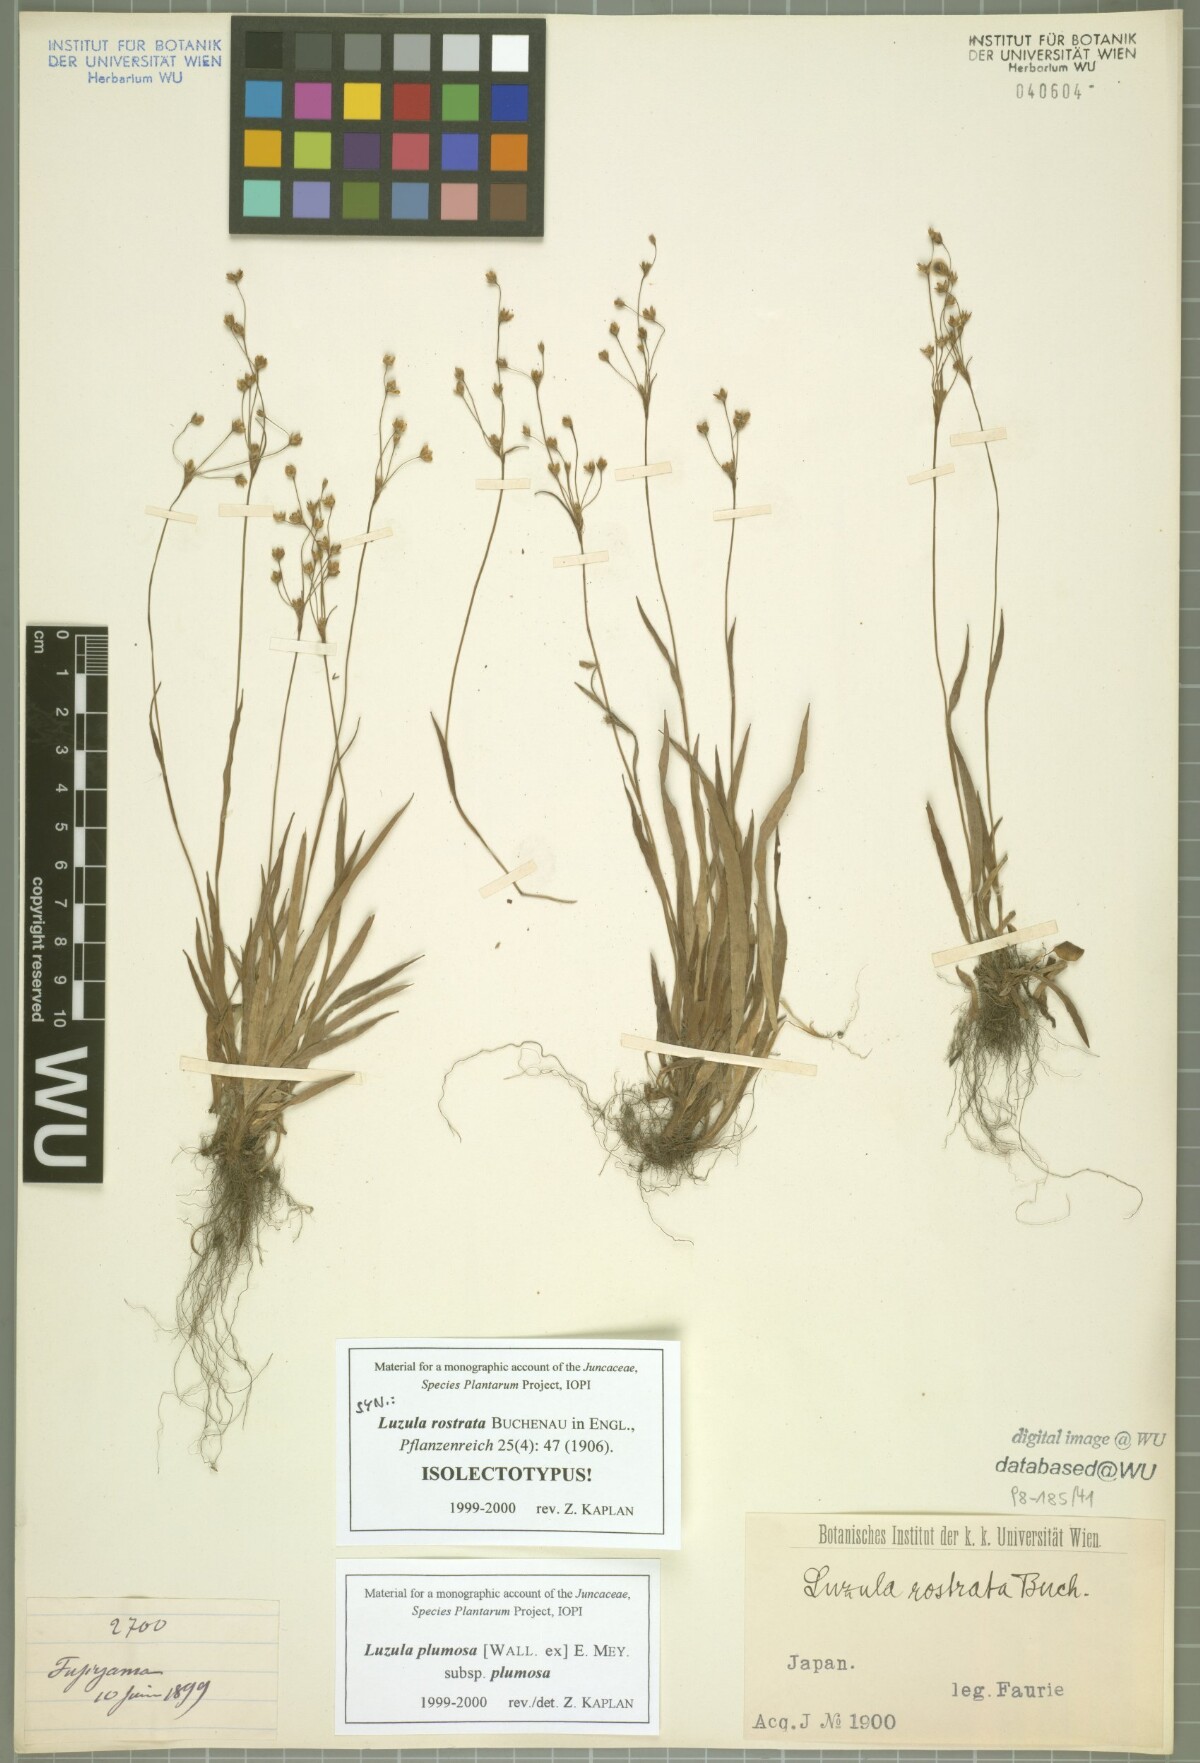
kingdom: Plantae
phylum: Tracheophyta
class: Liliopsida
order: Poales
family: Juncaceae
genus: Luzula
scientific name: Luzula plumosa
